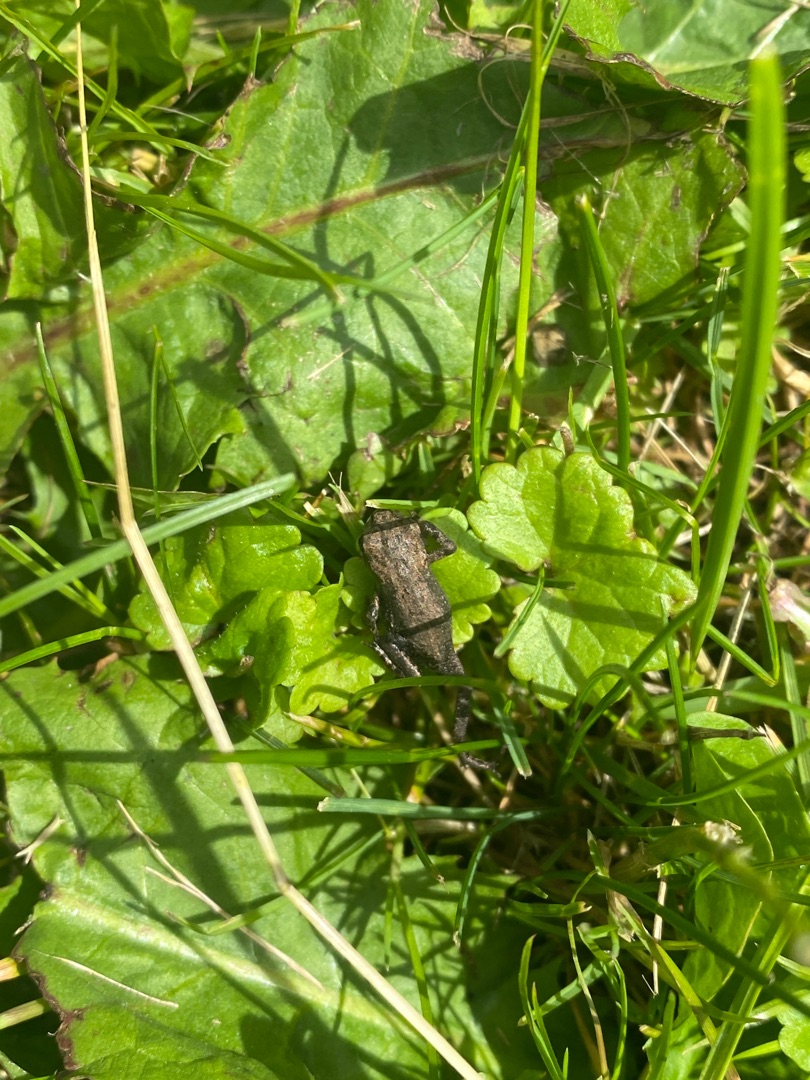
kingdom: Animalia
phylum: Chordata
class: Amphibia
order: Anura
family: Bufonidae
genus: Bufo
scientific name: Bufo bufo
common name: Skrubtudse
